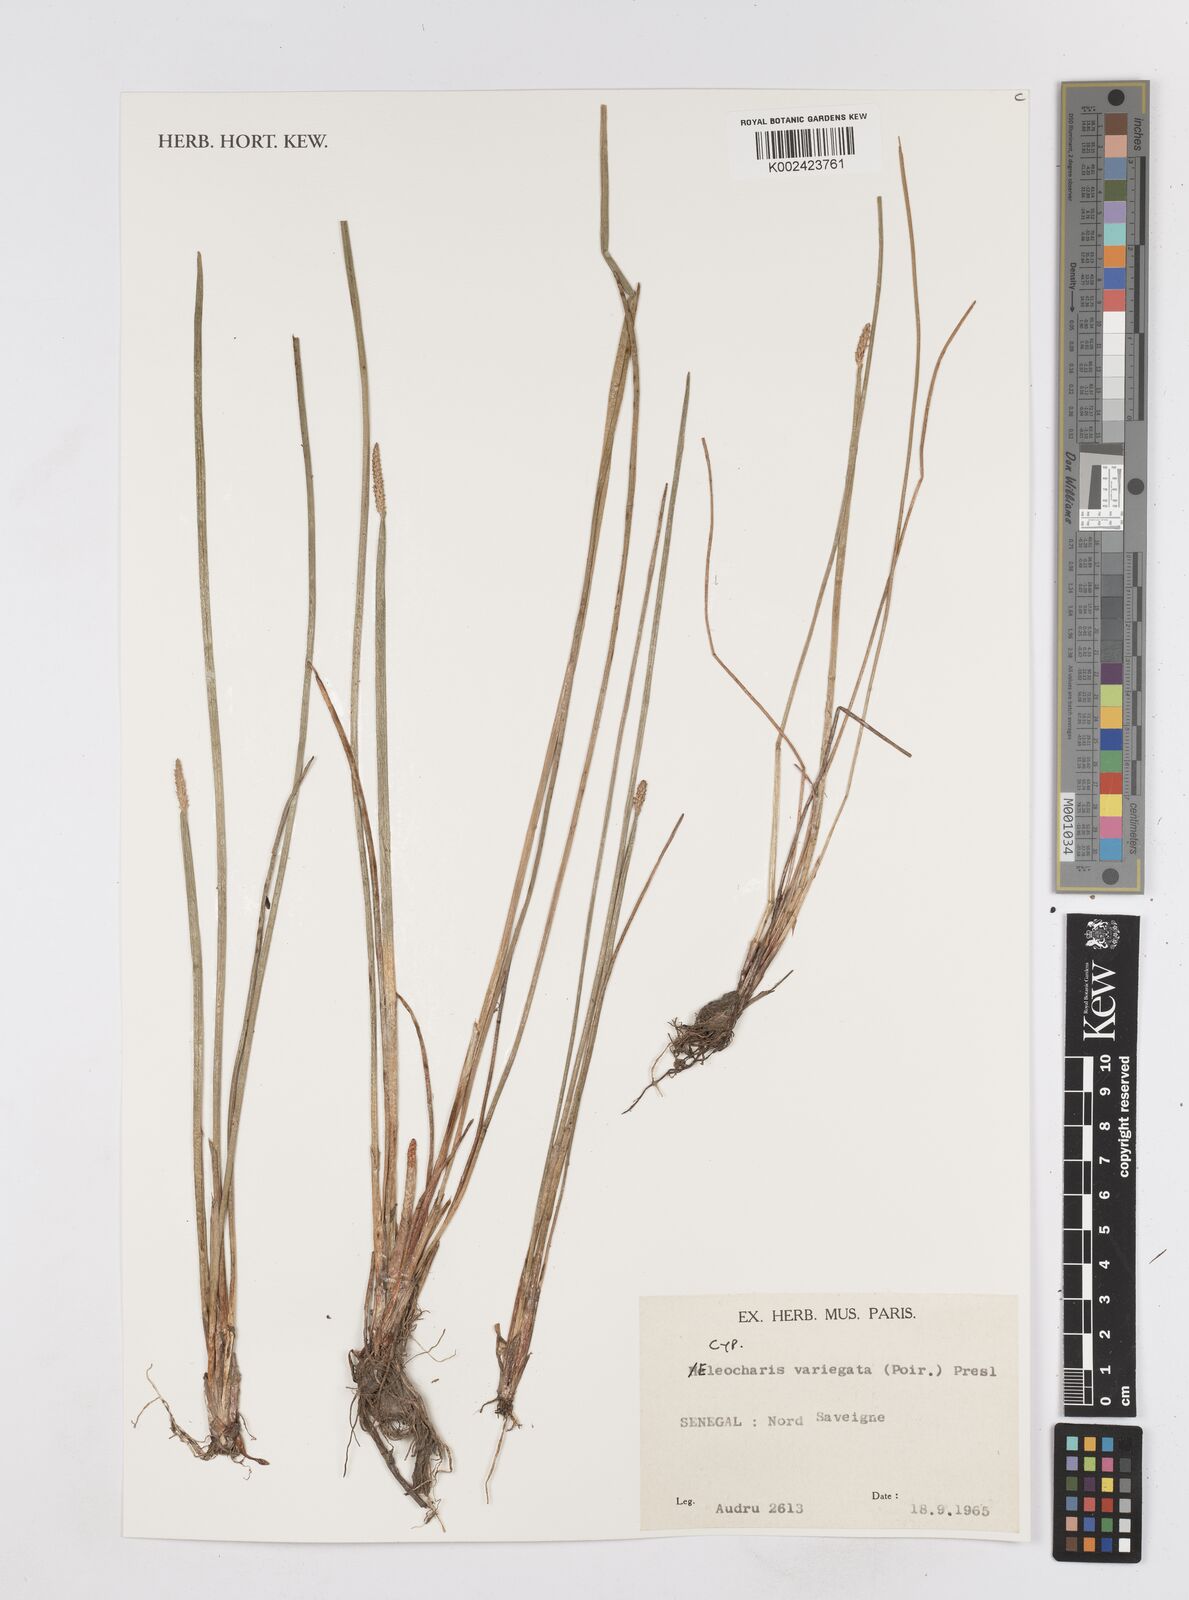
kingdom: Plantae
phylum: Tracheophyta
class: Liliopsida
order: Poales
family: Cyperaceae
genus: Eleocharis
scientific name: Eleocharis variegata
